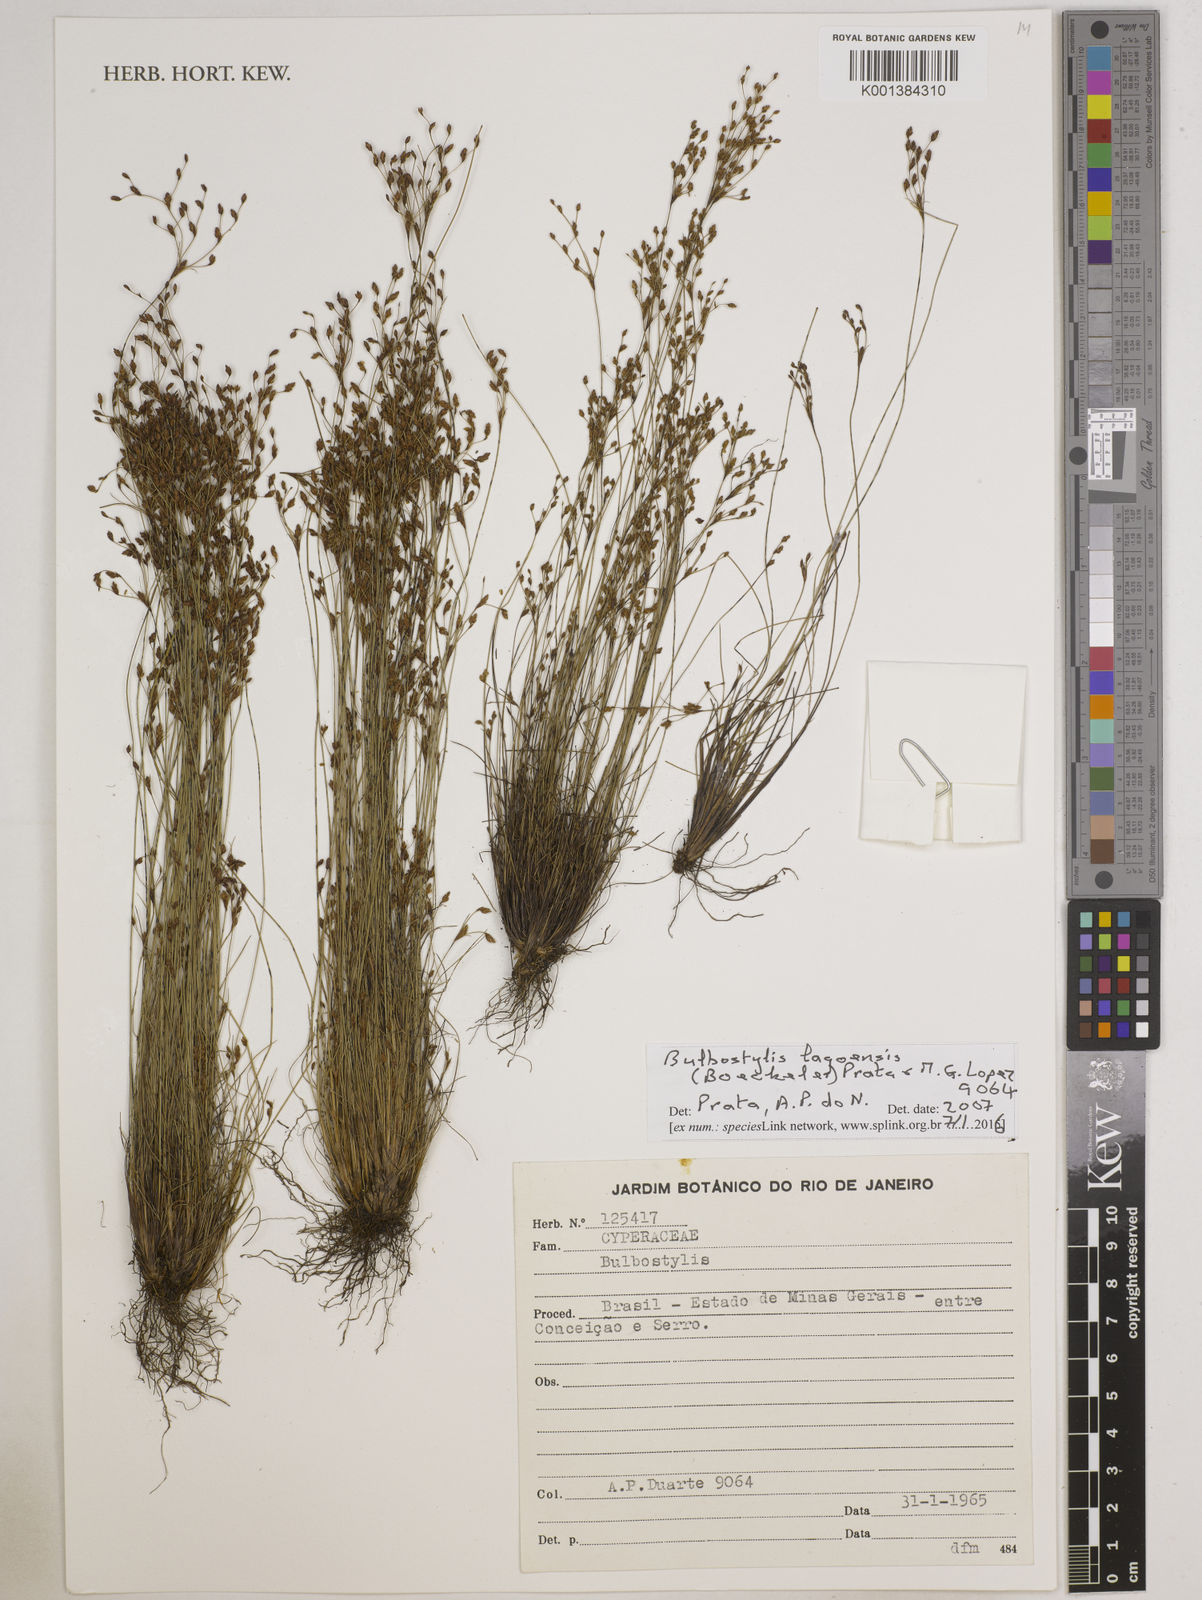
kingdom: Plantae
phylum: Tracheophyta
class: Liliopsida
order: Poales
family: Cyperaceae
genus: Bulbostylis
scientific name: Bulbostylis lagoensis
